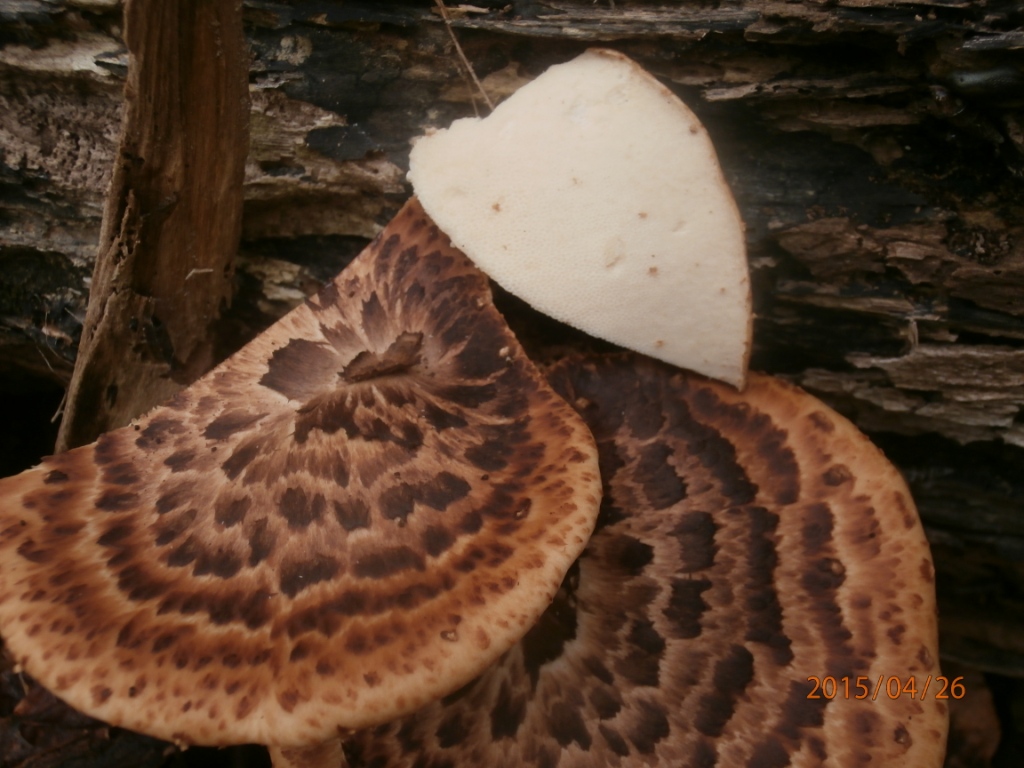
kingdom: Fungi
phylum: Basidiomycota
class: Agaricomycetes
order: Polyporales
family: Polyporaceae
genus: Cerioporus
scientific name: Cerioporus squamosus
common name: skællet stilkporesvamp
